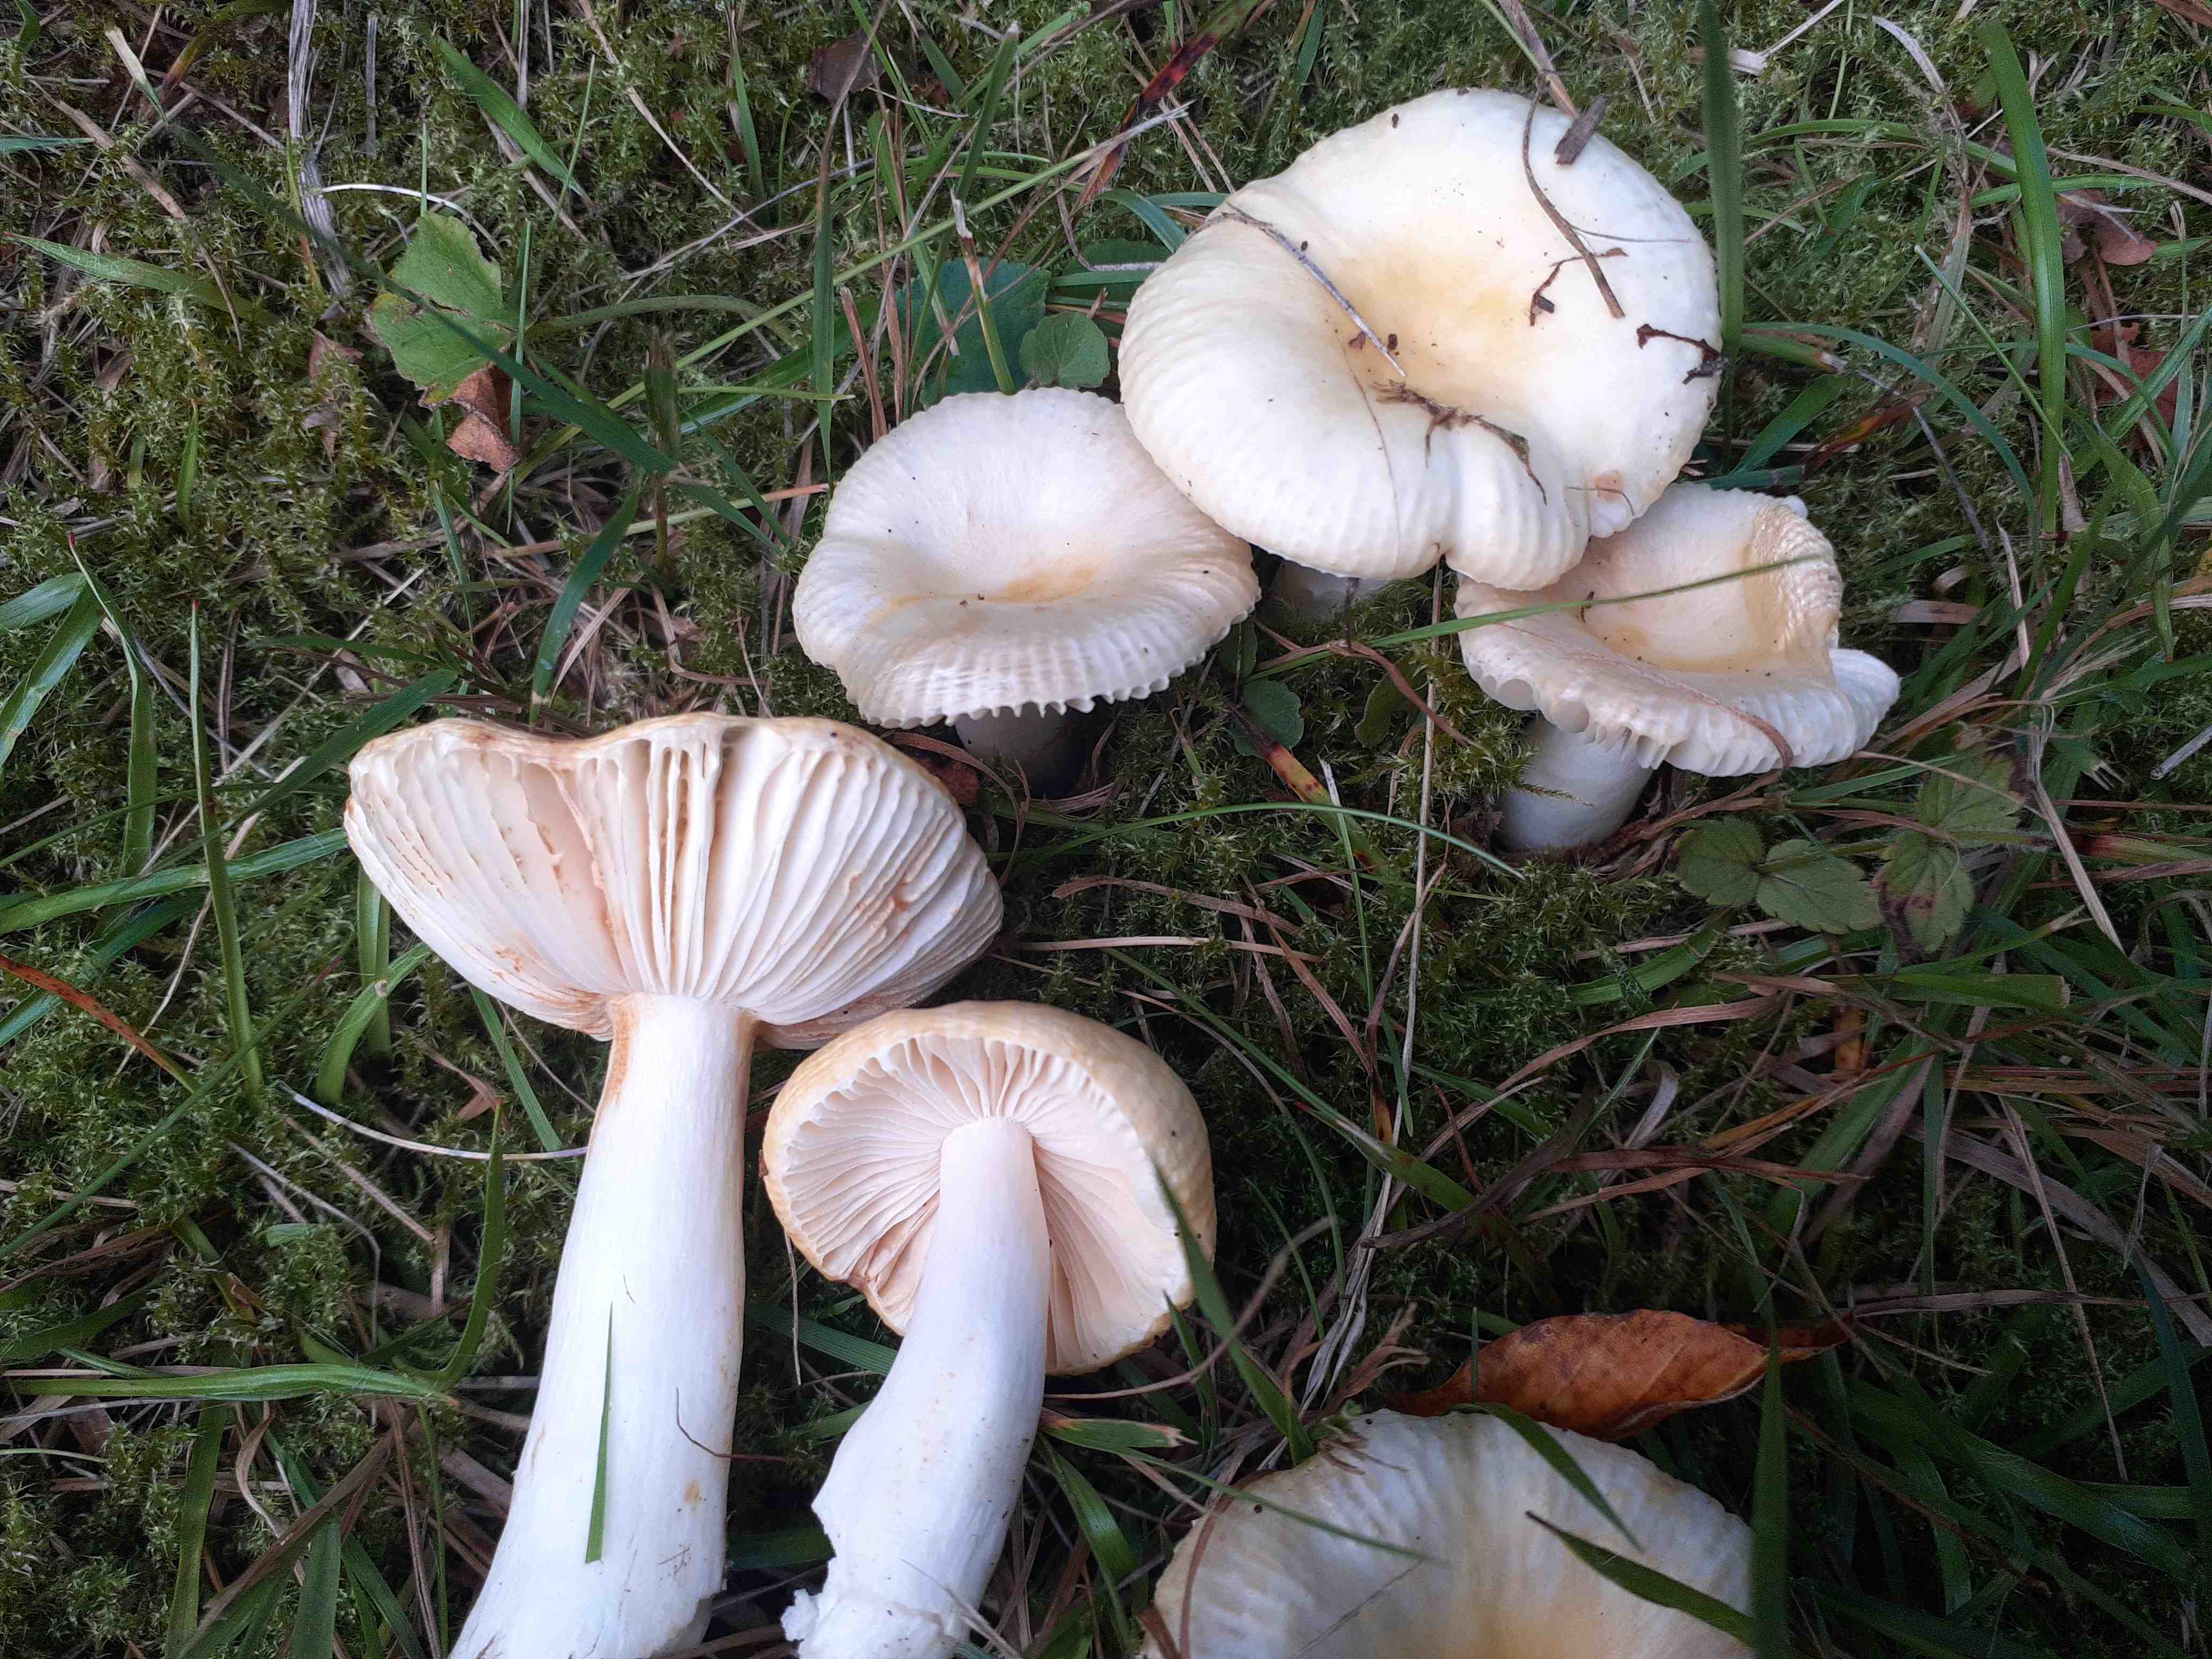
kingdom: Fungi
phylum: Basidiomycota
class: Agaricomycetes
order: Russulales
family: Russulaceae
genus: Russula
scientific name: Russula solaris
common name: sol-skørhat
